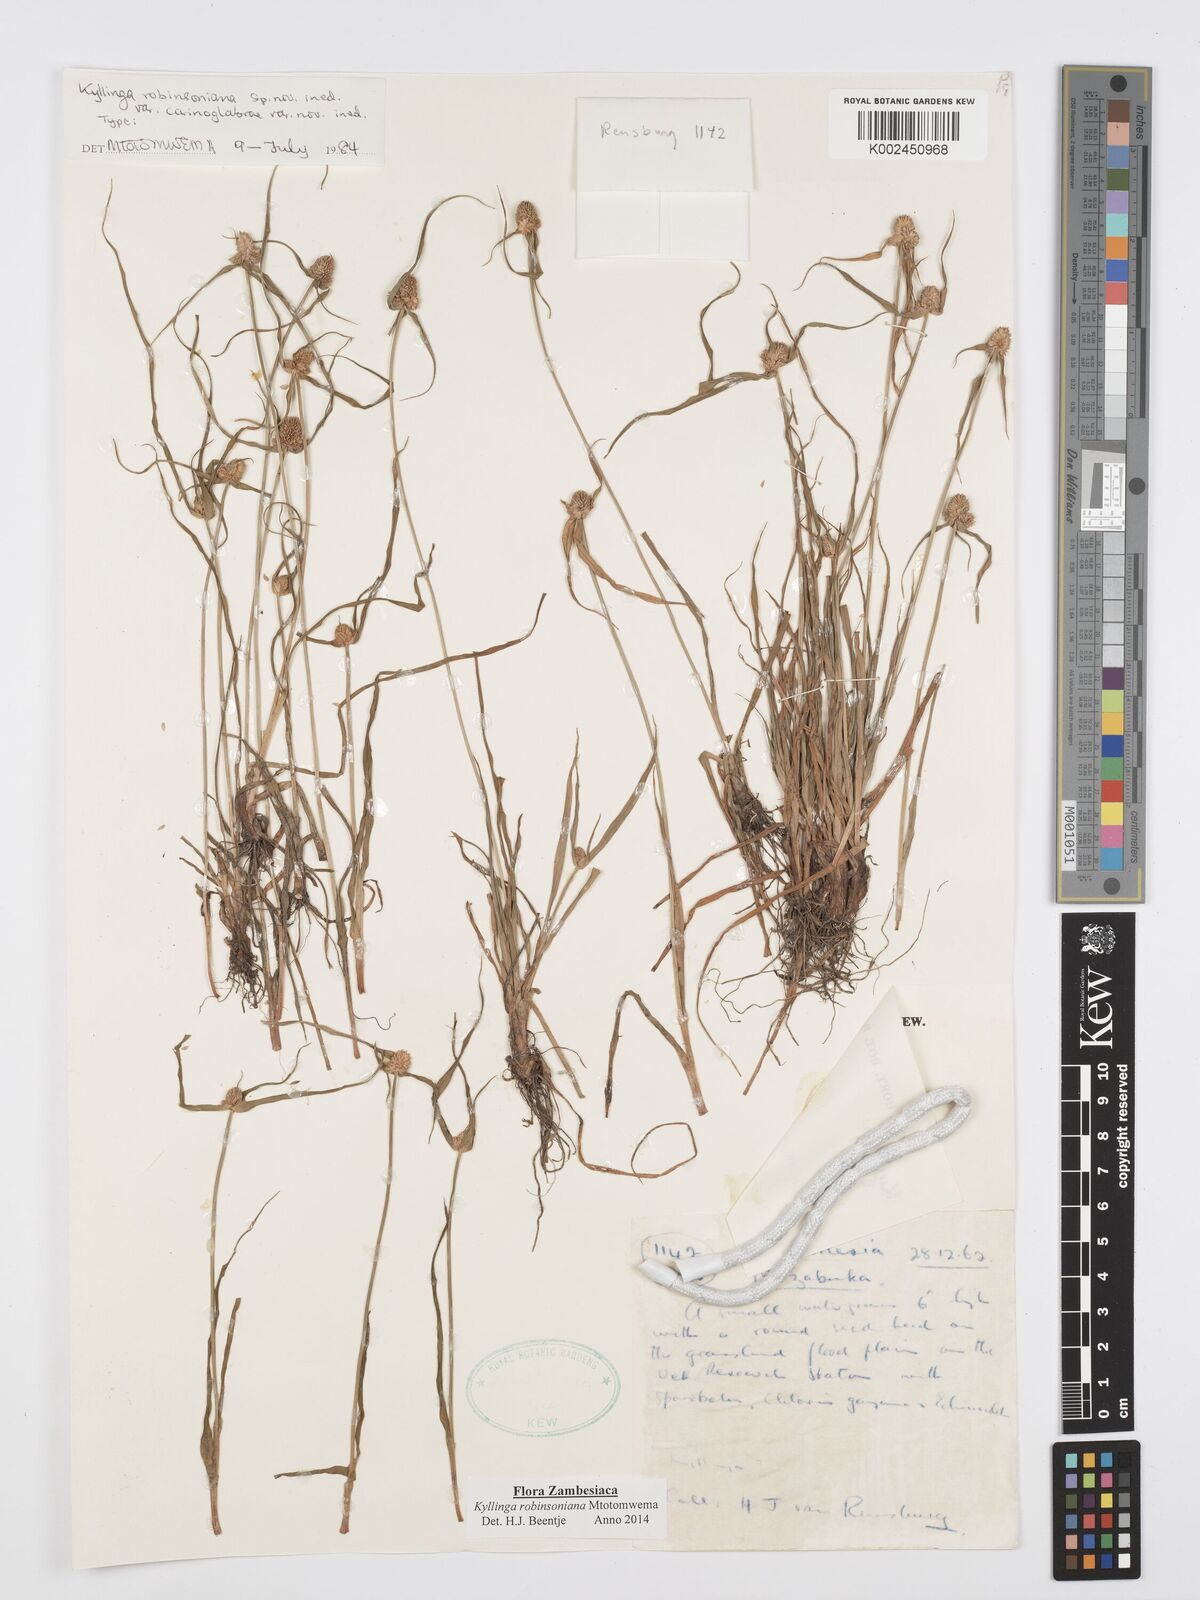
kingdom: Plantae
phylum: Tracheophyta
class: Liliopsida
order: Poales
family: Cyperaceae
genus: Cyperus
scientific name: Cyperus robinsonianus
